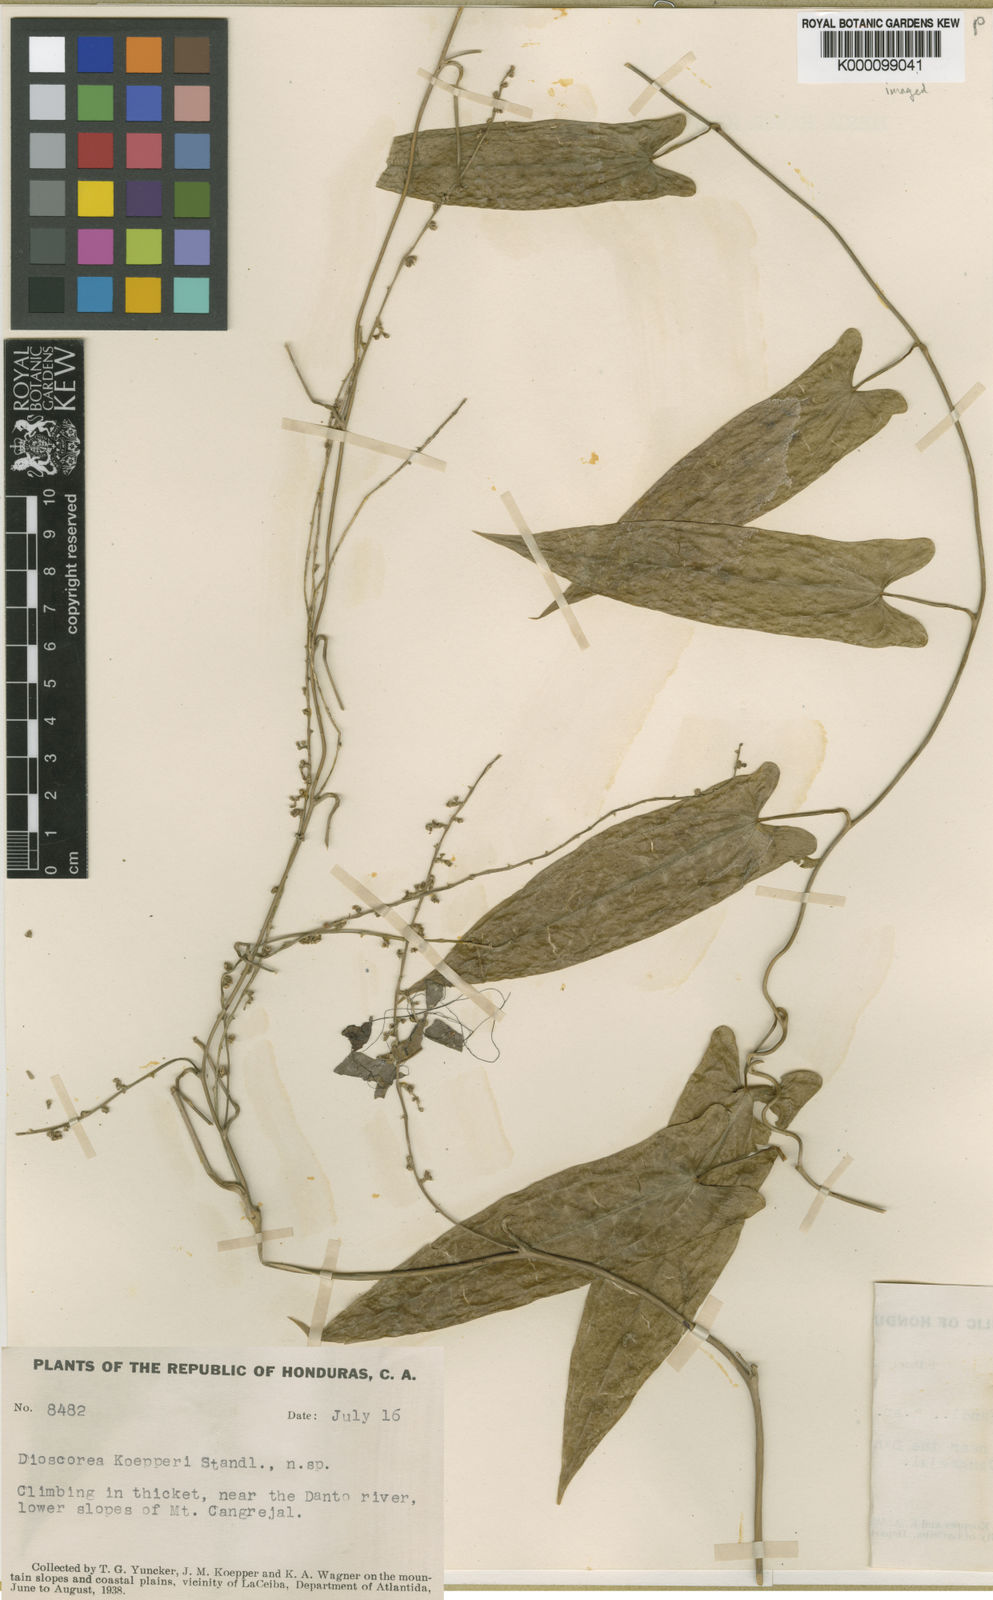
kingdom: Plantae
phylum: Tracheophyta
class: Liliopsida
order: Dioscoreales
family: Dioscoreaceae
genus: Dioscorea
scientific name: Dioscorea koepperi
